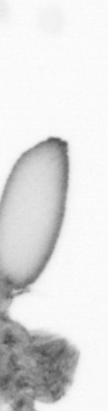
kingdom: Animalia
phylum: Arthropoda
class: Copepoda
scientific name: Copepoda
